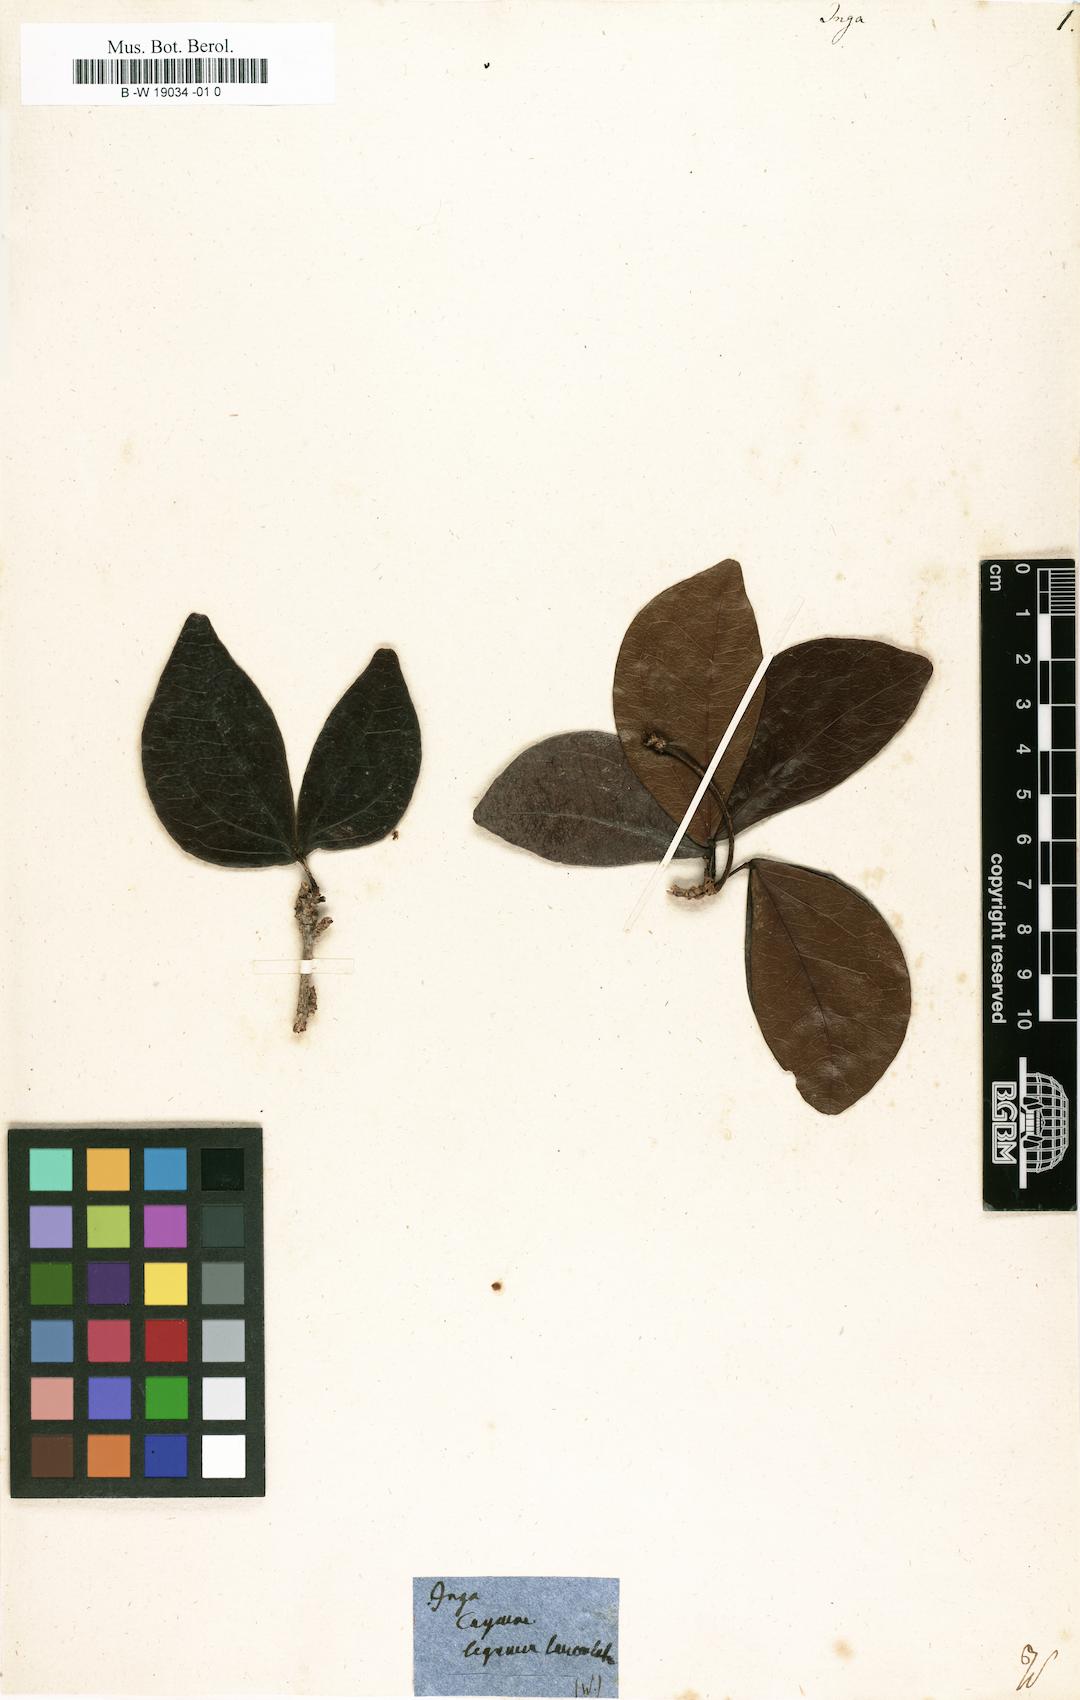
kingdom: Plantae
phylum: Tracheophyta
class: Magnoliopsida
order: Fabales
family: Fabaceae
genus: Inga
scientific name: Inga
